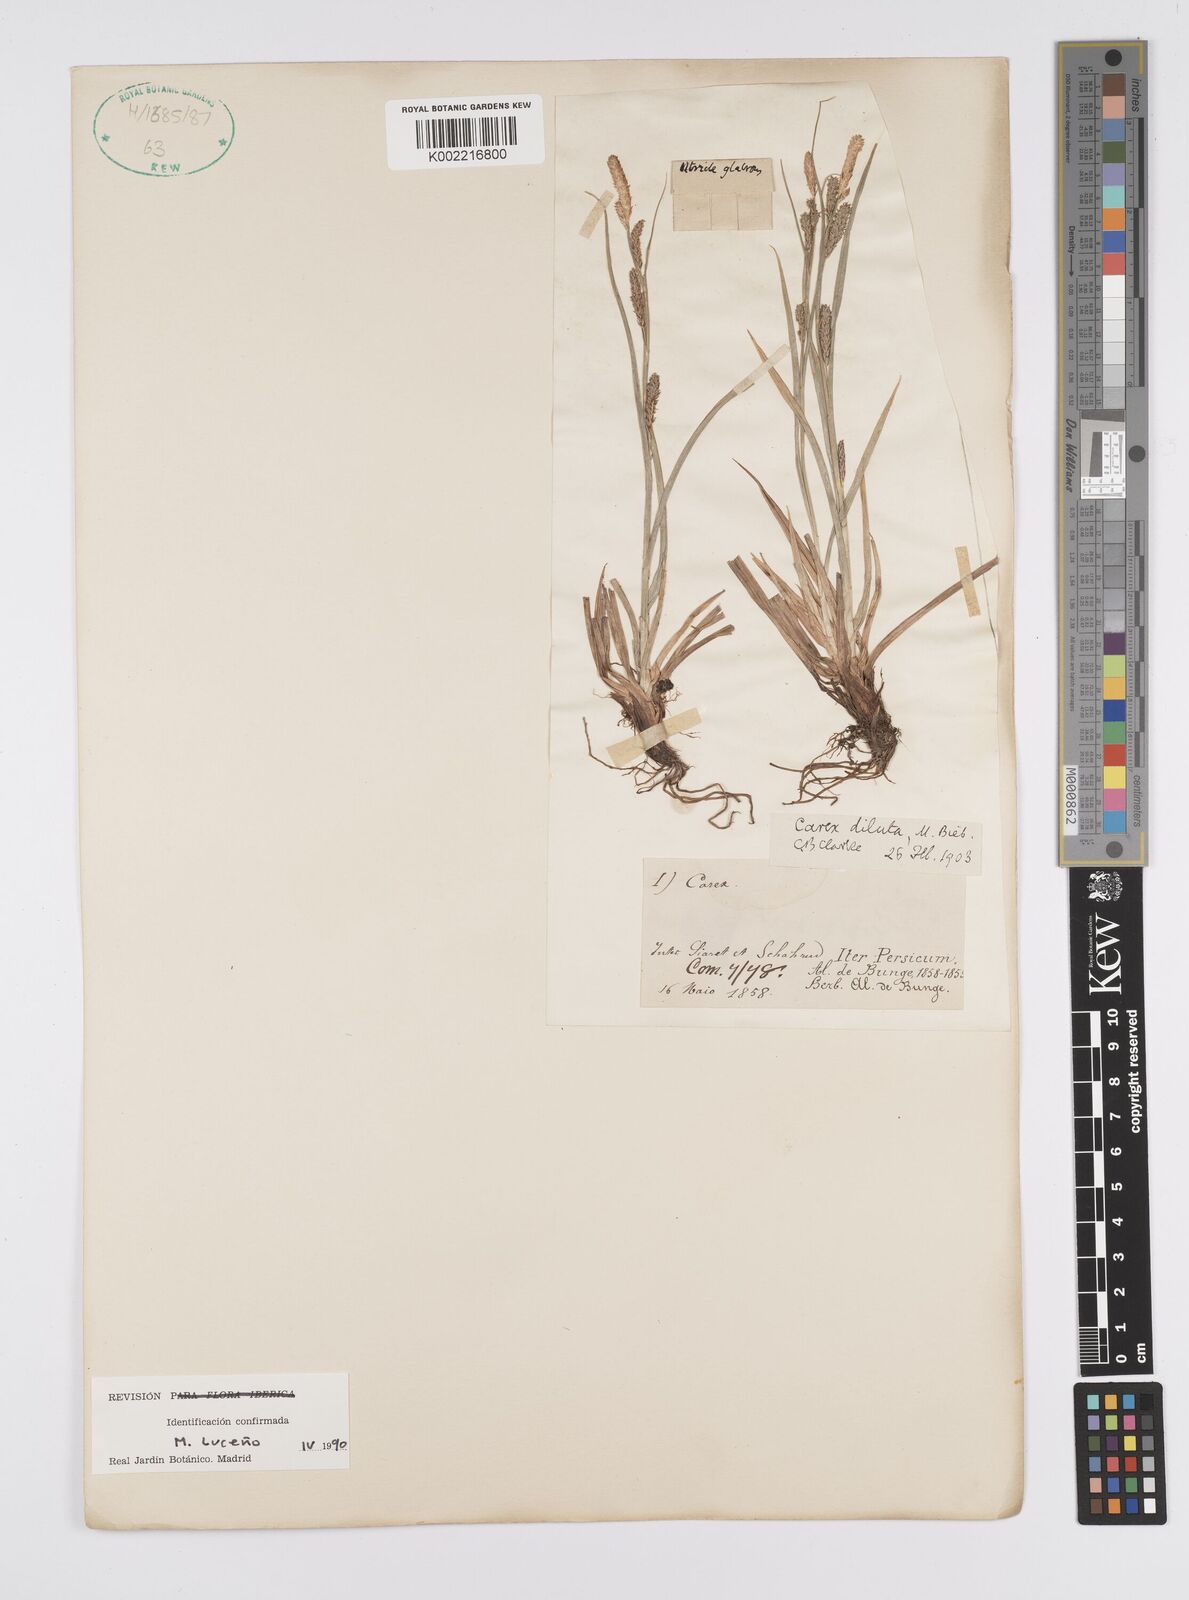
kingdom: Plantae
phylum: Tracheophyta
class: Liliopsida
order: Poales
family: Cyperaceae
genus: Carex
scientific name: Carex diluta
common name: Sedge
